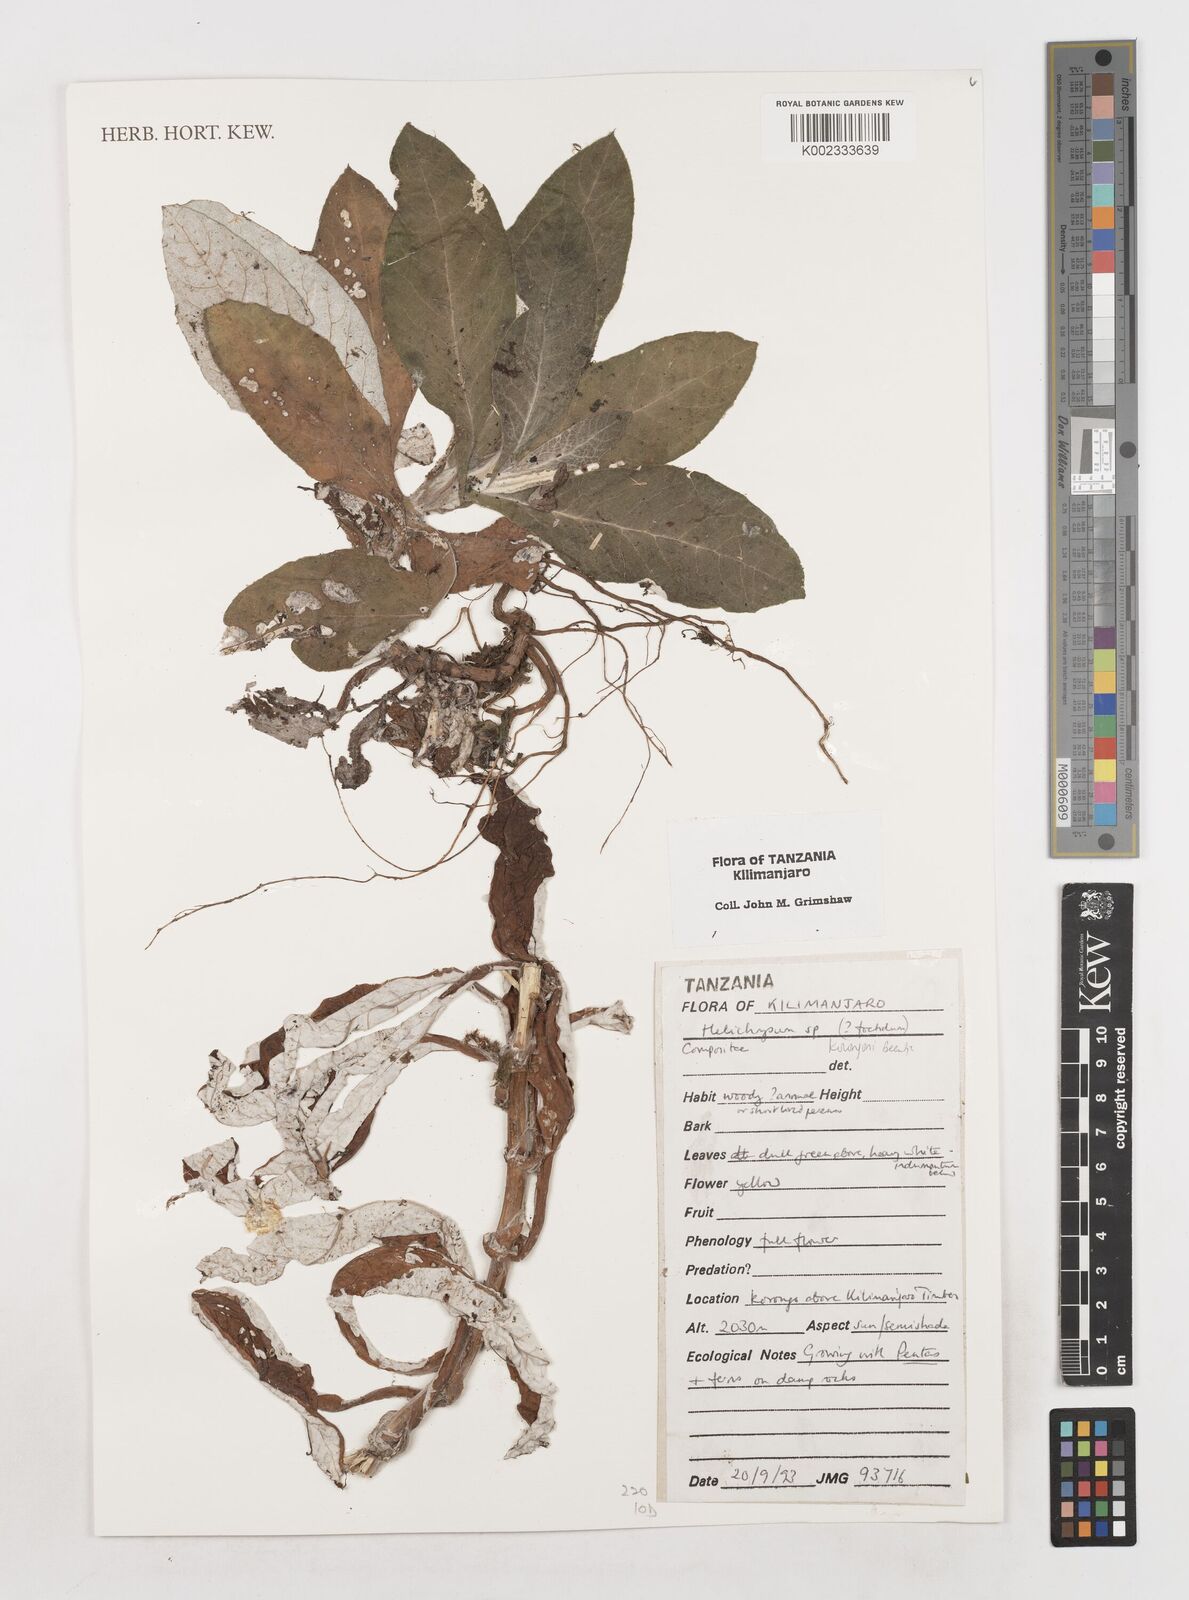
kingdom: Plantae
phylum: Tracheophyta
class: Magnoliopsida
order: Asterales
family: Asteraceae
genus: Helichrysum
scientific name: Helichrysum korongoni
